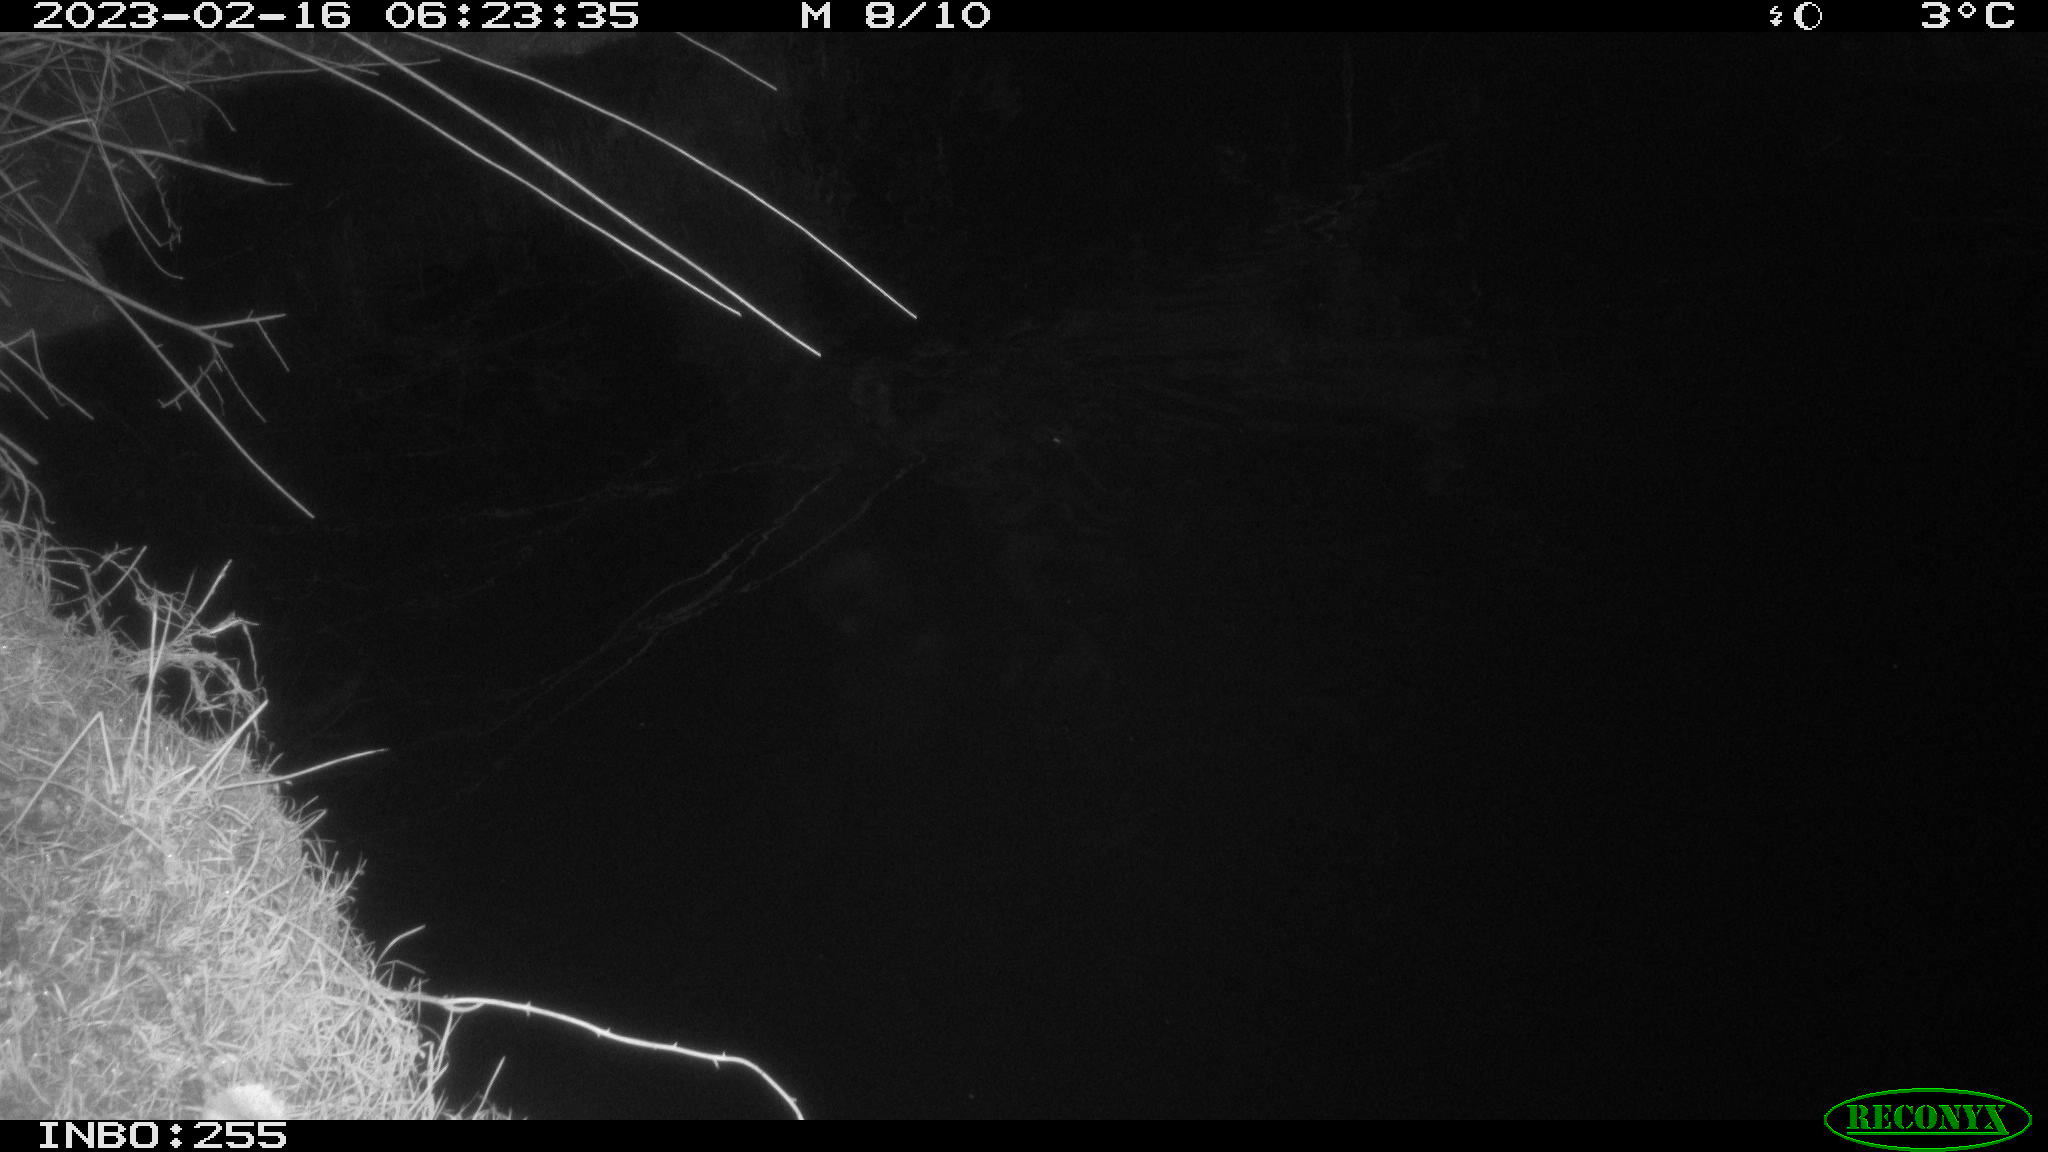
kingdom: Animalia
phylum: Chordata
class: Aves
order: Anseriformes
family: Anatidae
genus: Anas
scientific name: Anas
